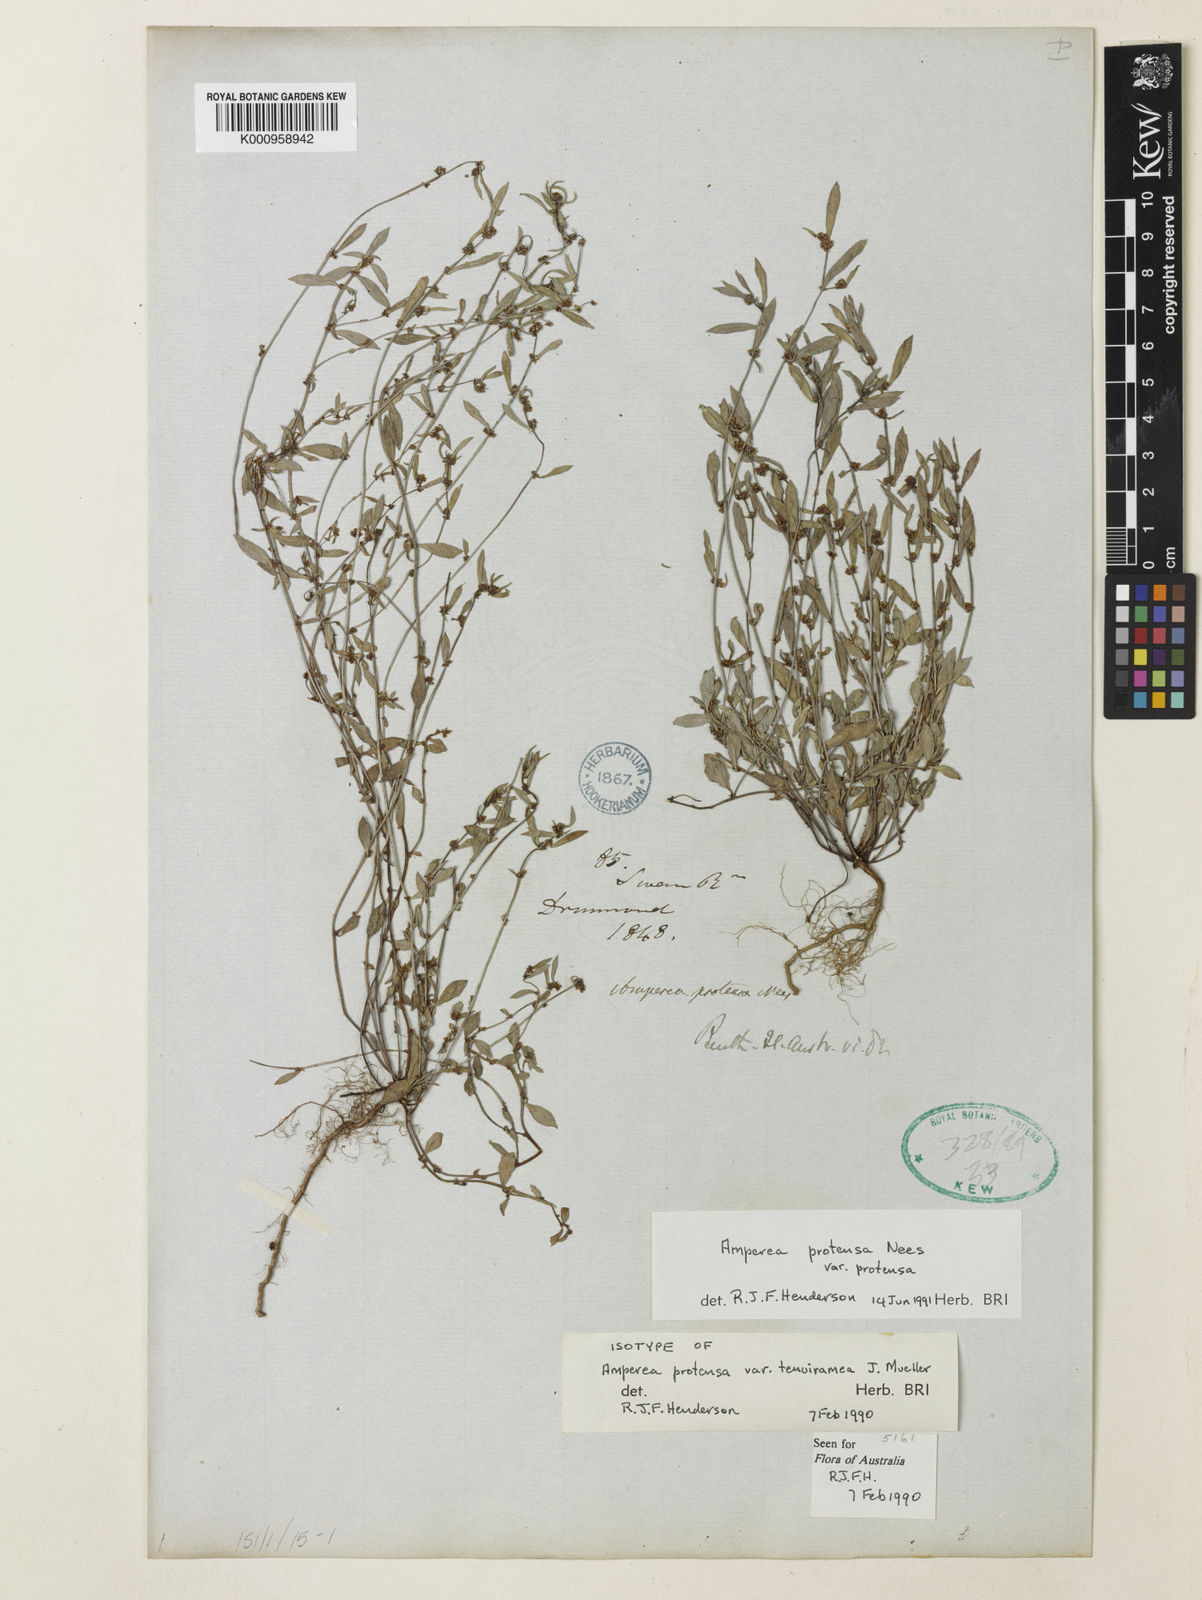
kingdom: Plantae
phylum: Tracheophyta
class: Magnoliopsida
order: Malpighiales
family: Euphorbiaceae
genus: Amperea
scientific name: Amperea protensa
